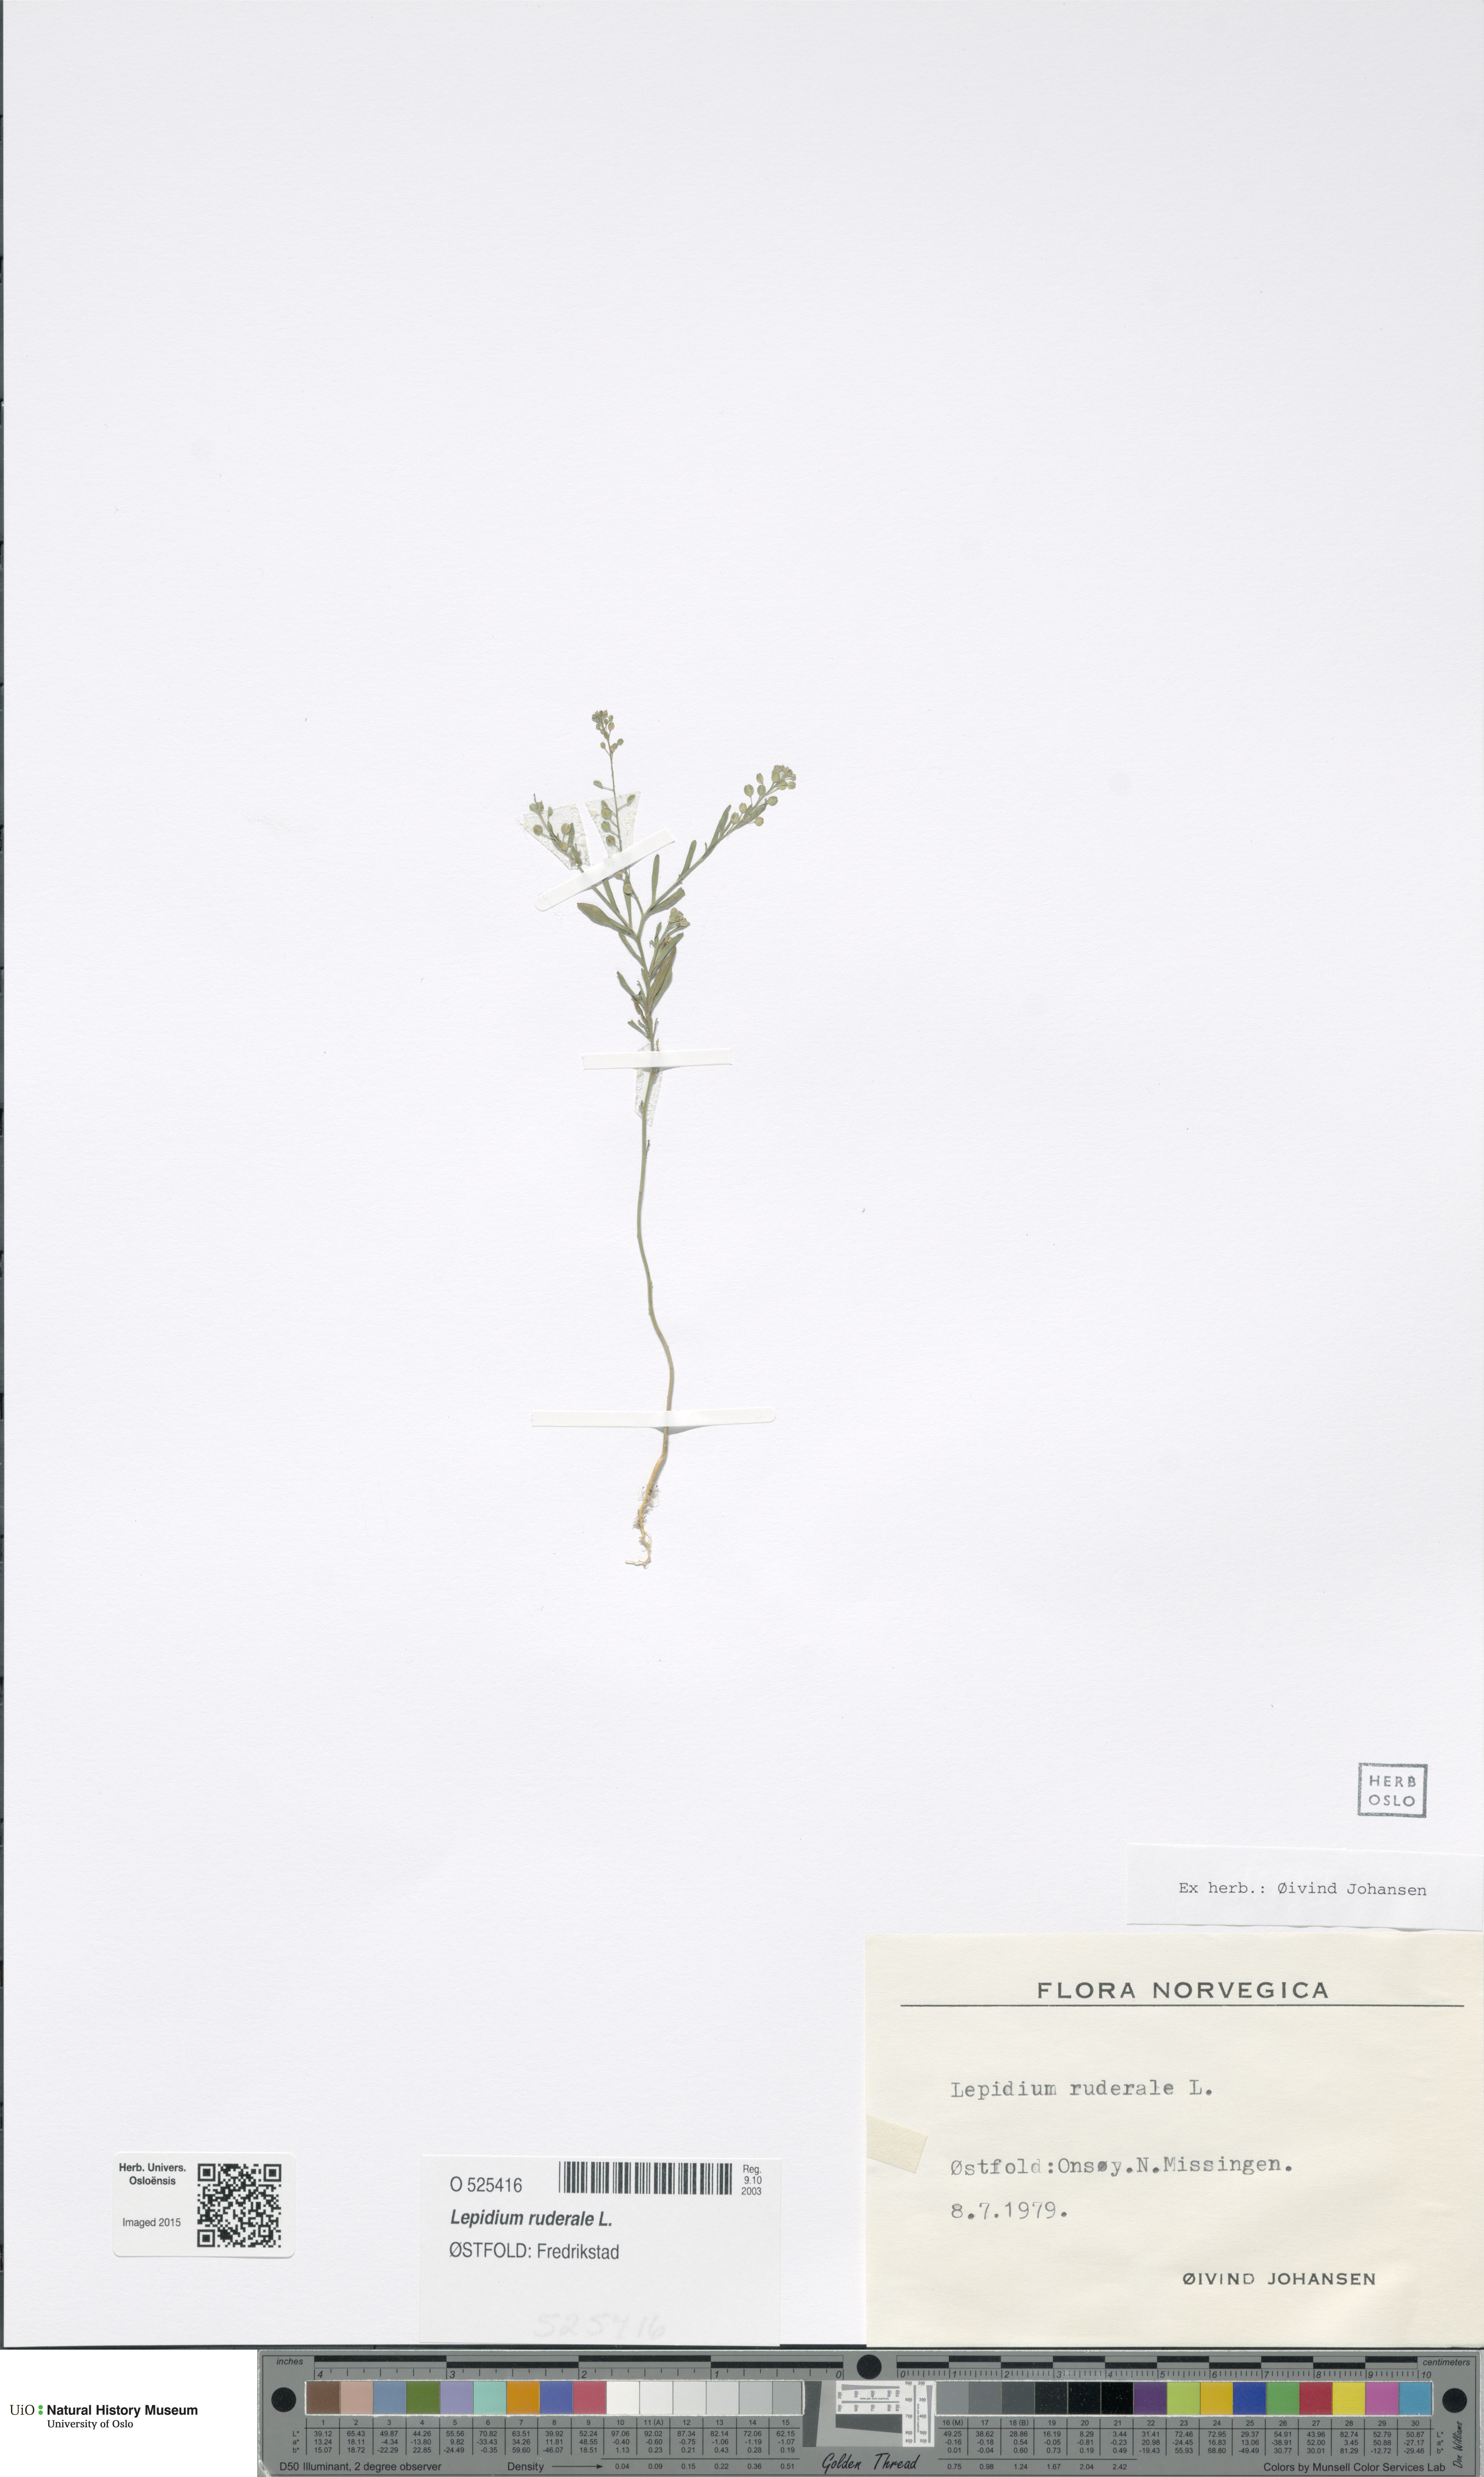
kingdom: Plantae
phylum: Tracheophyta
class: Magnoliopsida
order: Brassicales
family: Brassicaceae
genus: Lepidium
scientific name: Lepidium ruderale
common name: Narrow-leaved pepperwort
